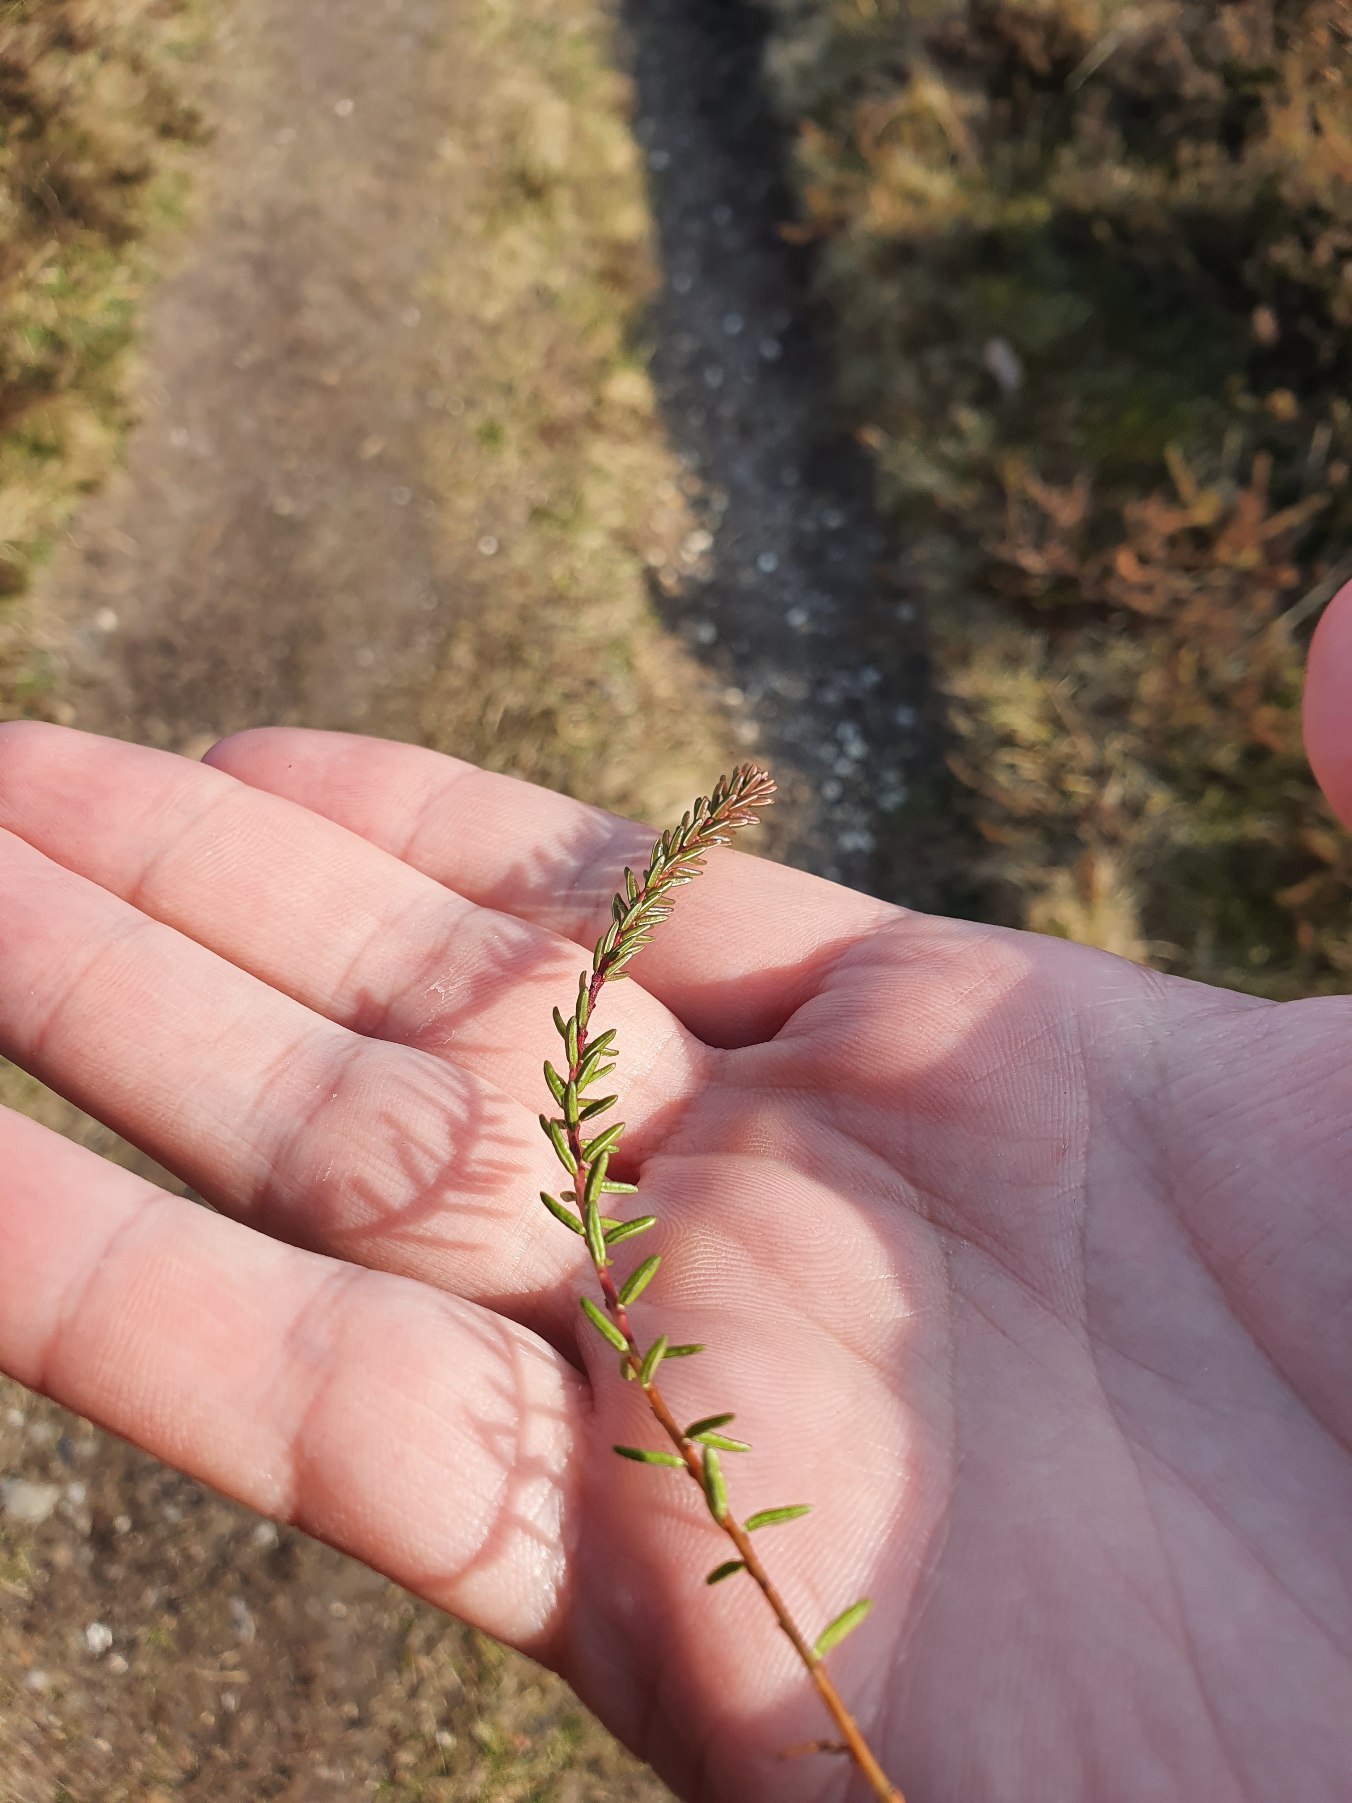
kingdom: Plantae
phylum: Tracheophyta
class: Magnoliopsida
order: Ericales
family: Ericaceae
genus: Empetrum
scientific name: Empetrum nigrum
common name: Revling
